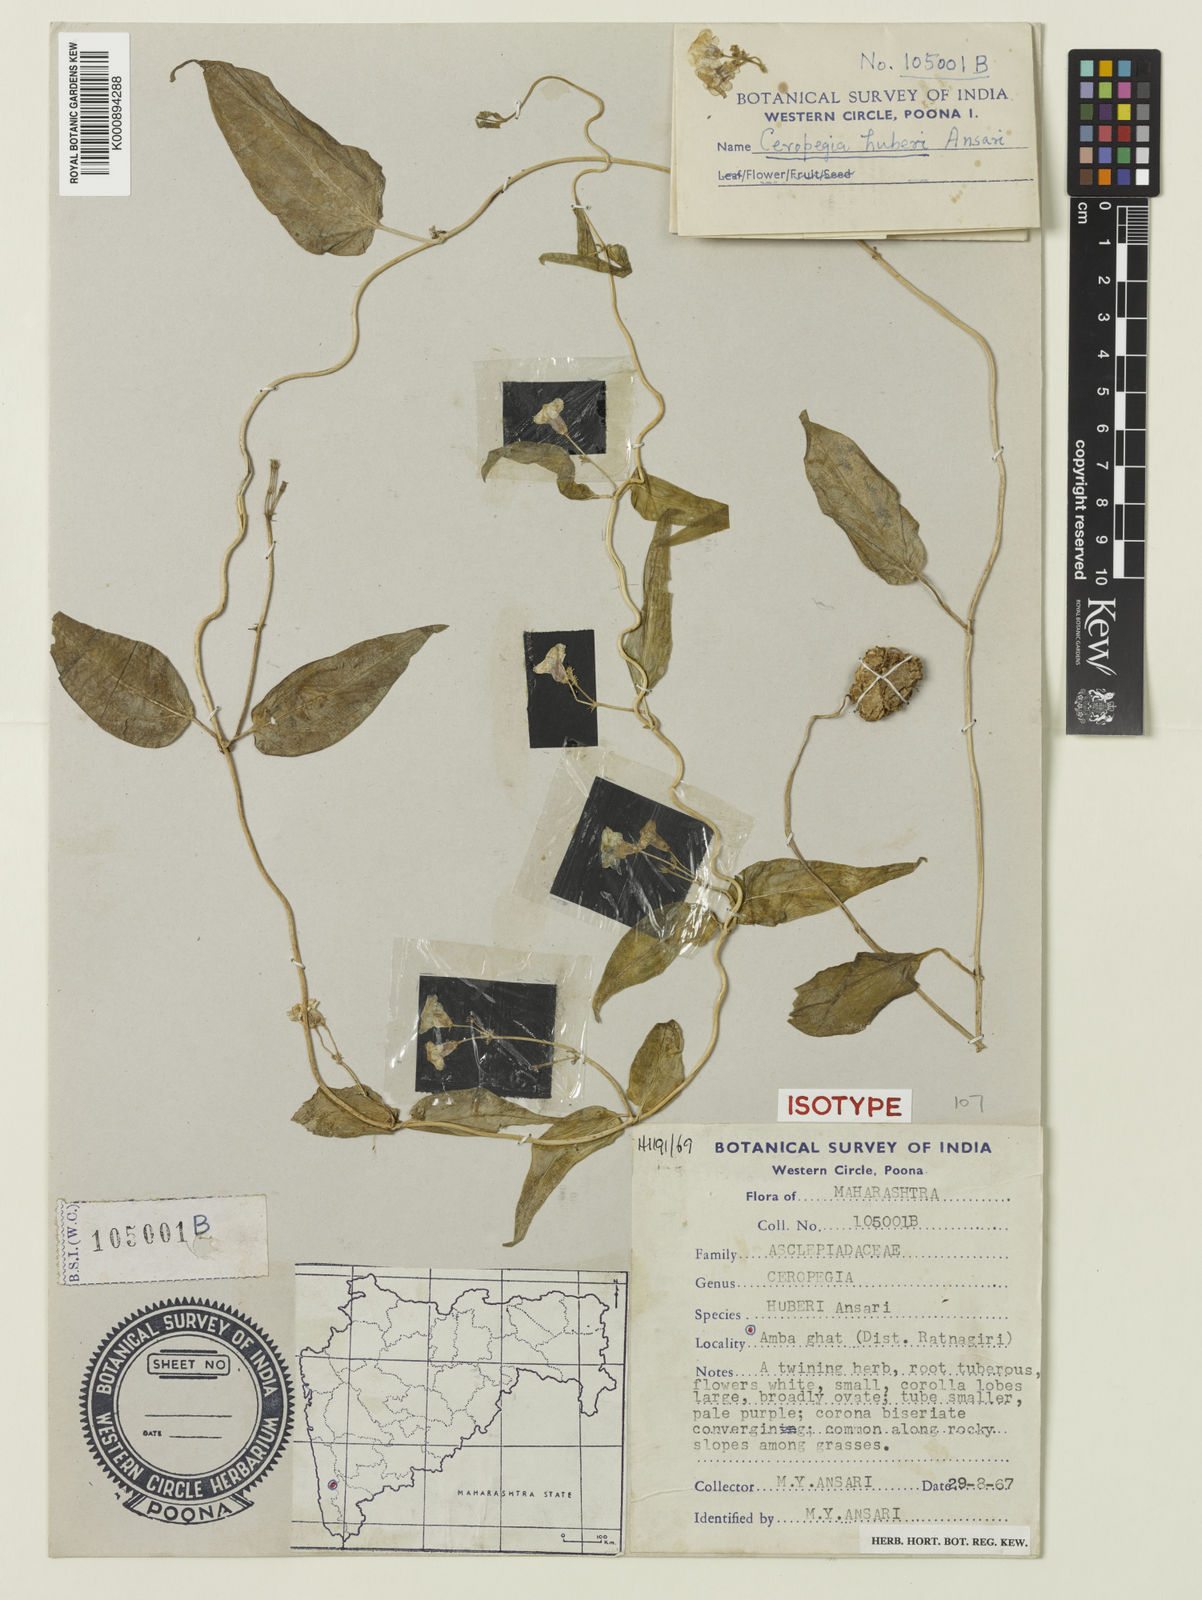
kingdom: Plantae
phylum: Tracheophyta
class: Magnoliopsida
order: Gentianales
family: Apocynaceae
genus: Ceropegia
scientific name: Ceropegia santapaui
